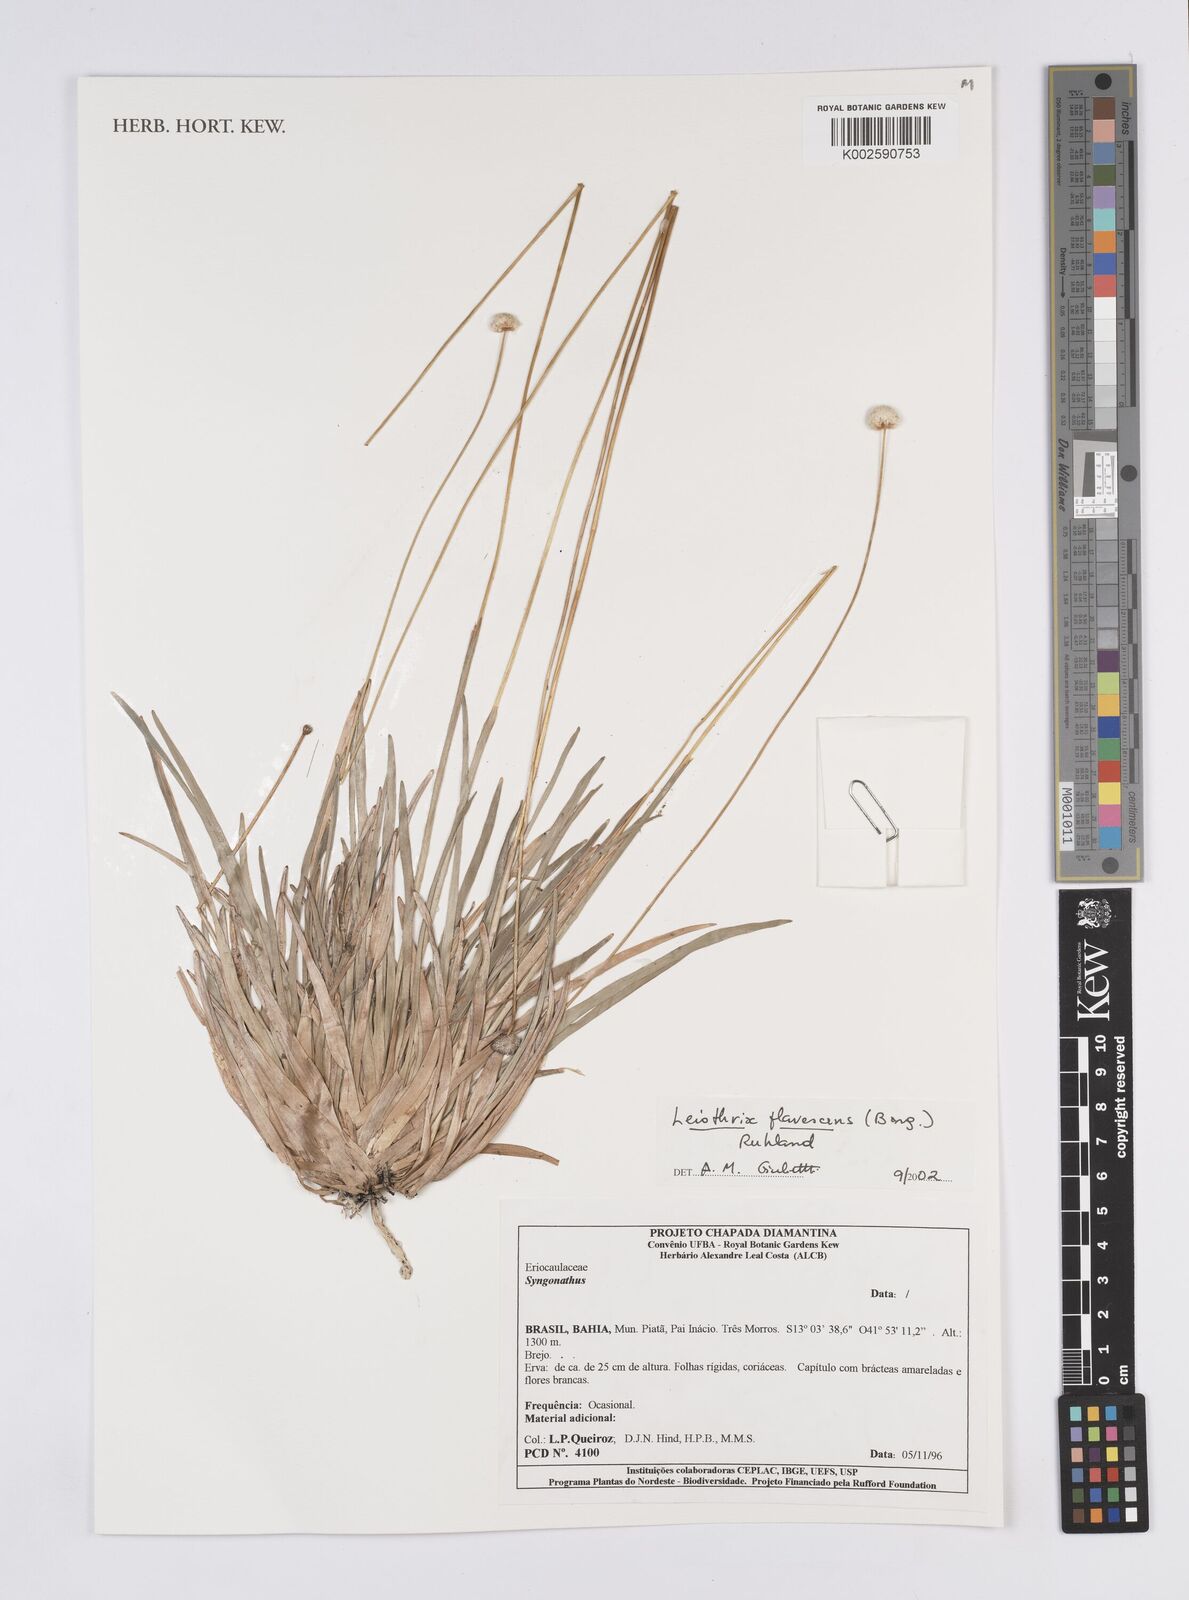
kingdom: Plantae
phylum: Tracheophyta
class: Liliopsida
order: Poales
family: Eriocaulaceae
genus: Leiothrix
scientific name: Leiothrix flavescens
